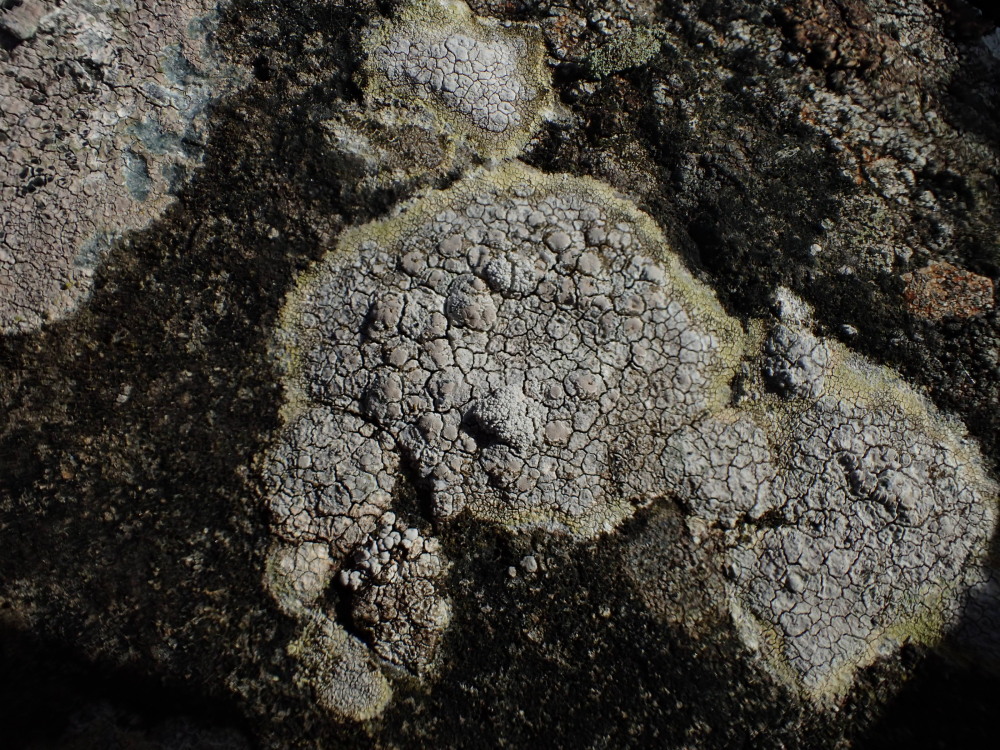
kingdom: Fungi
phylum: Ascomycota
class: Lecanoromycetes
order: Lecanorales
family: Lecanoraceae
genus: Glaucomaria
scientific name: Glaucomaria rupicola
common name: stengærde-kantskivelav
